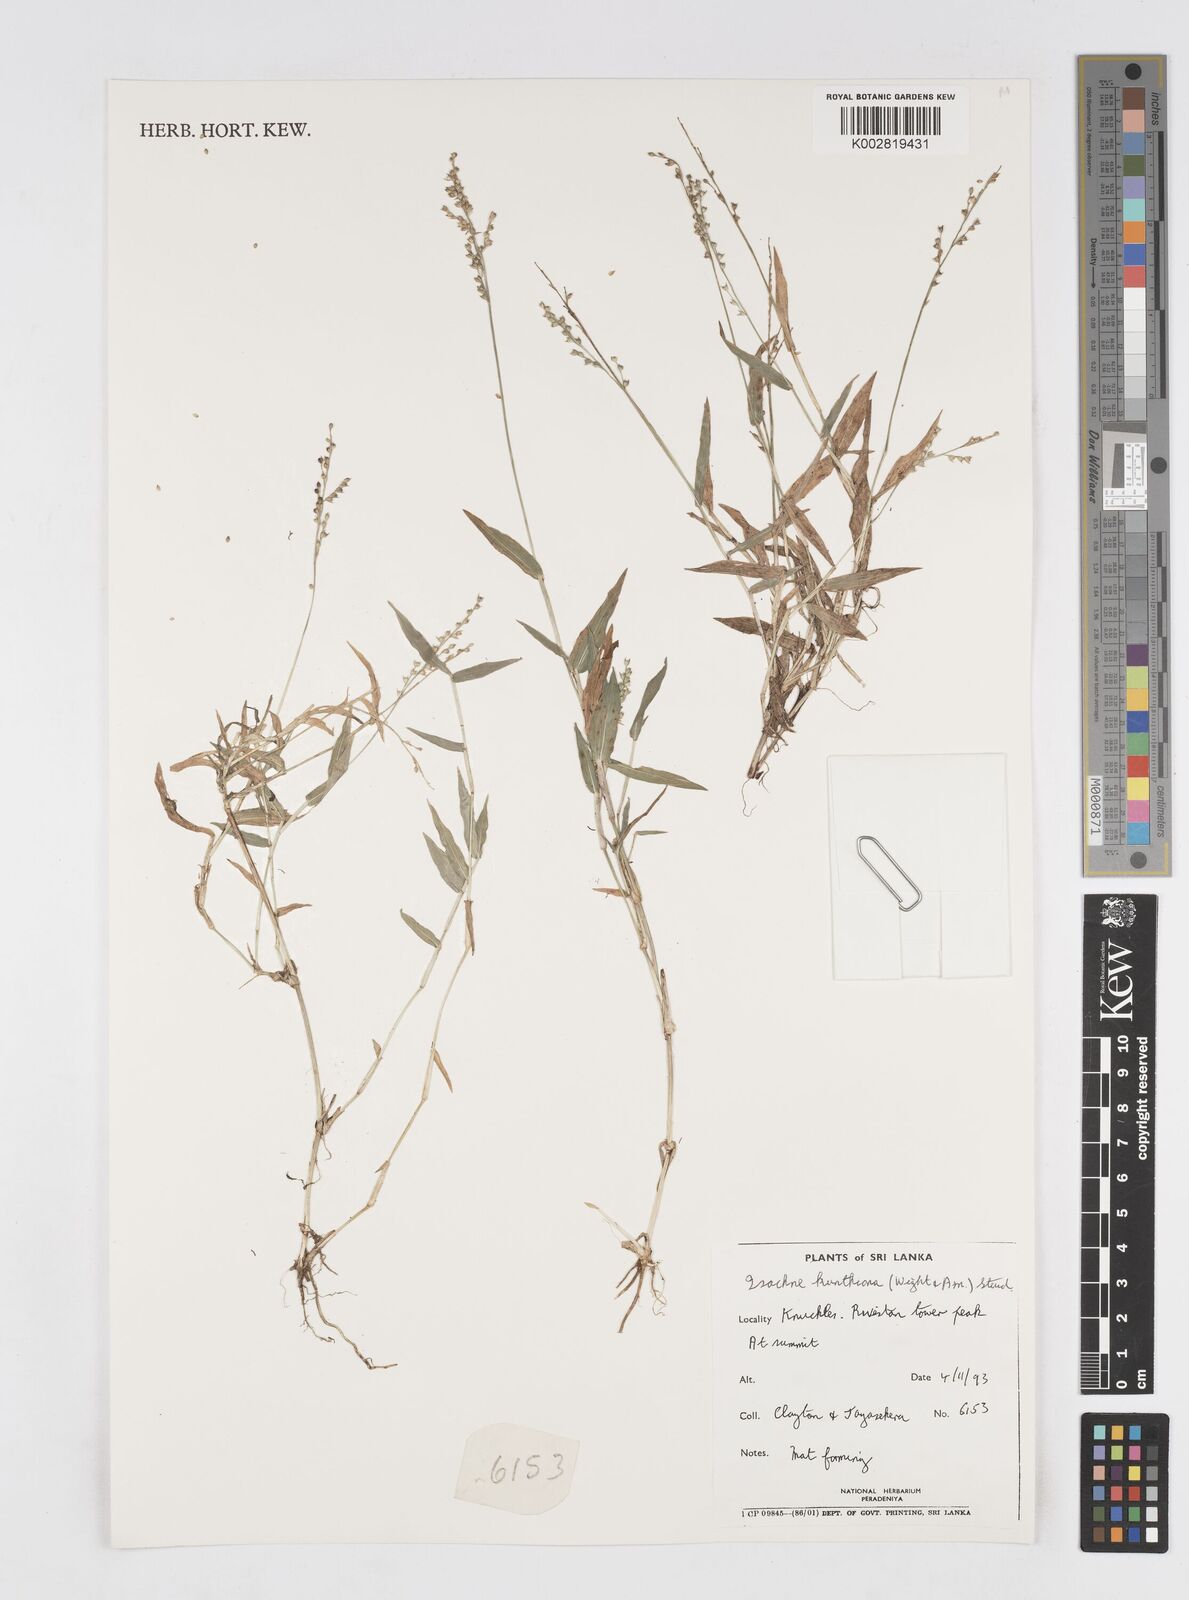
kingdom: Plantae
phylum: Tracheophyta
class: Liliopsida
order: Poales
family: Poaceae
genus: Isachne
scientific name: Isachne kunthiana
